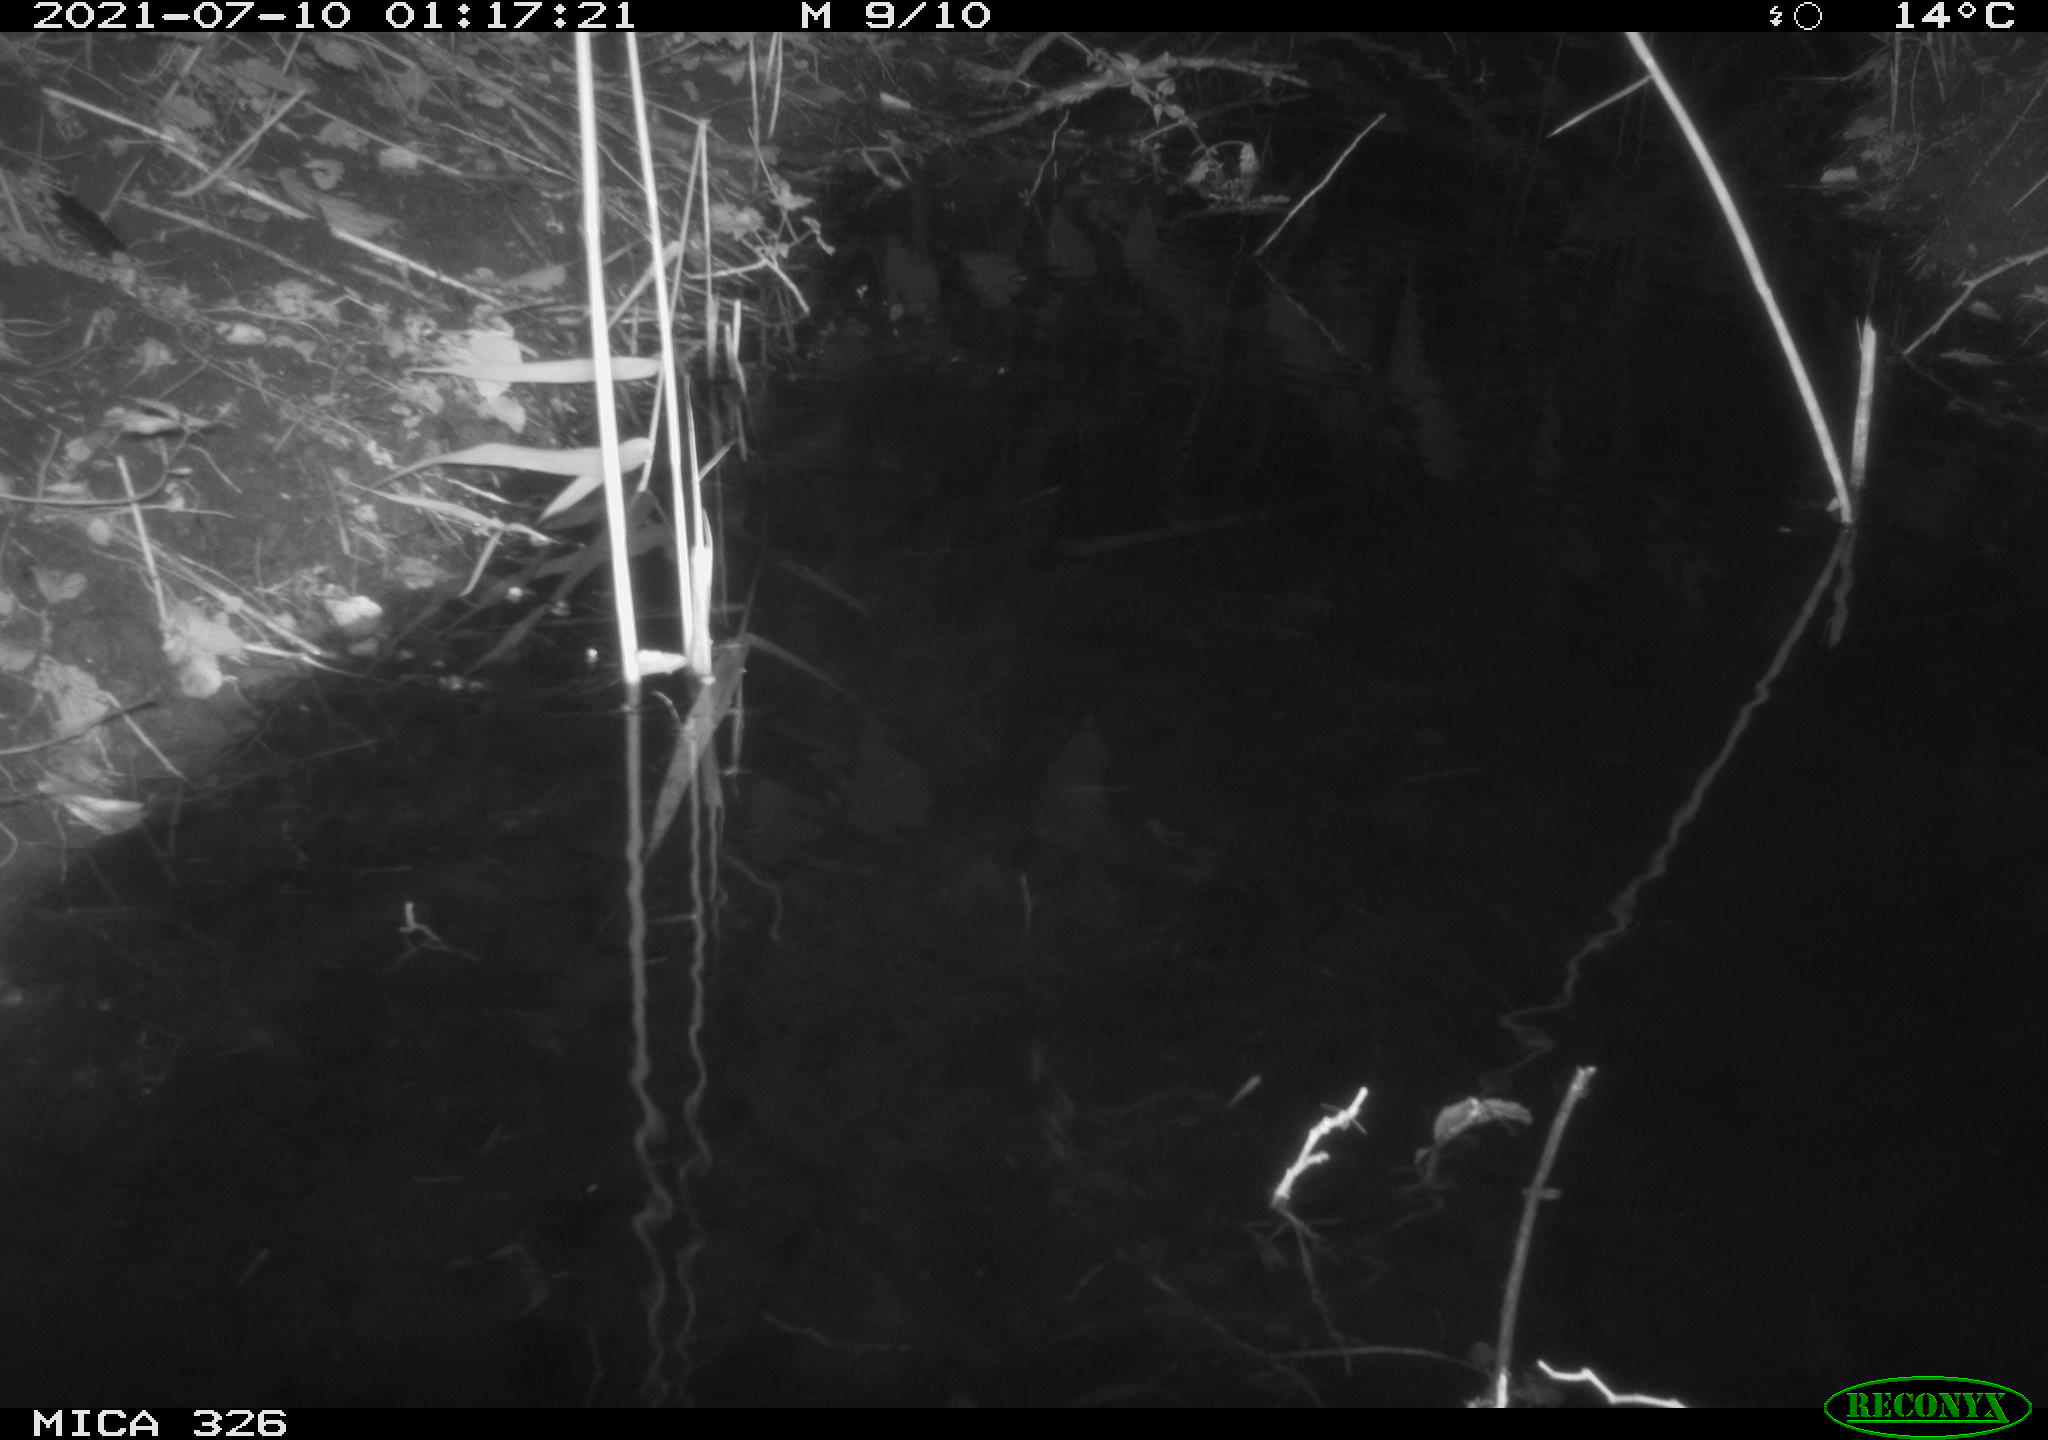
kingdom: Animalia
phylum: Chordata
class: Mammalia
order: Rodentia
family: Muridae
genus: Rattus
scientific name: Rattus norvegicus
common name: Brown rat
